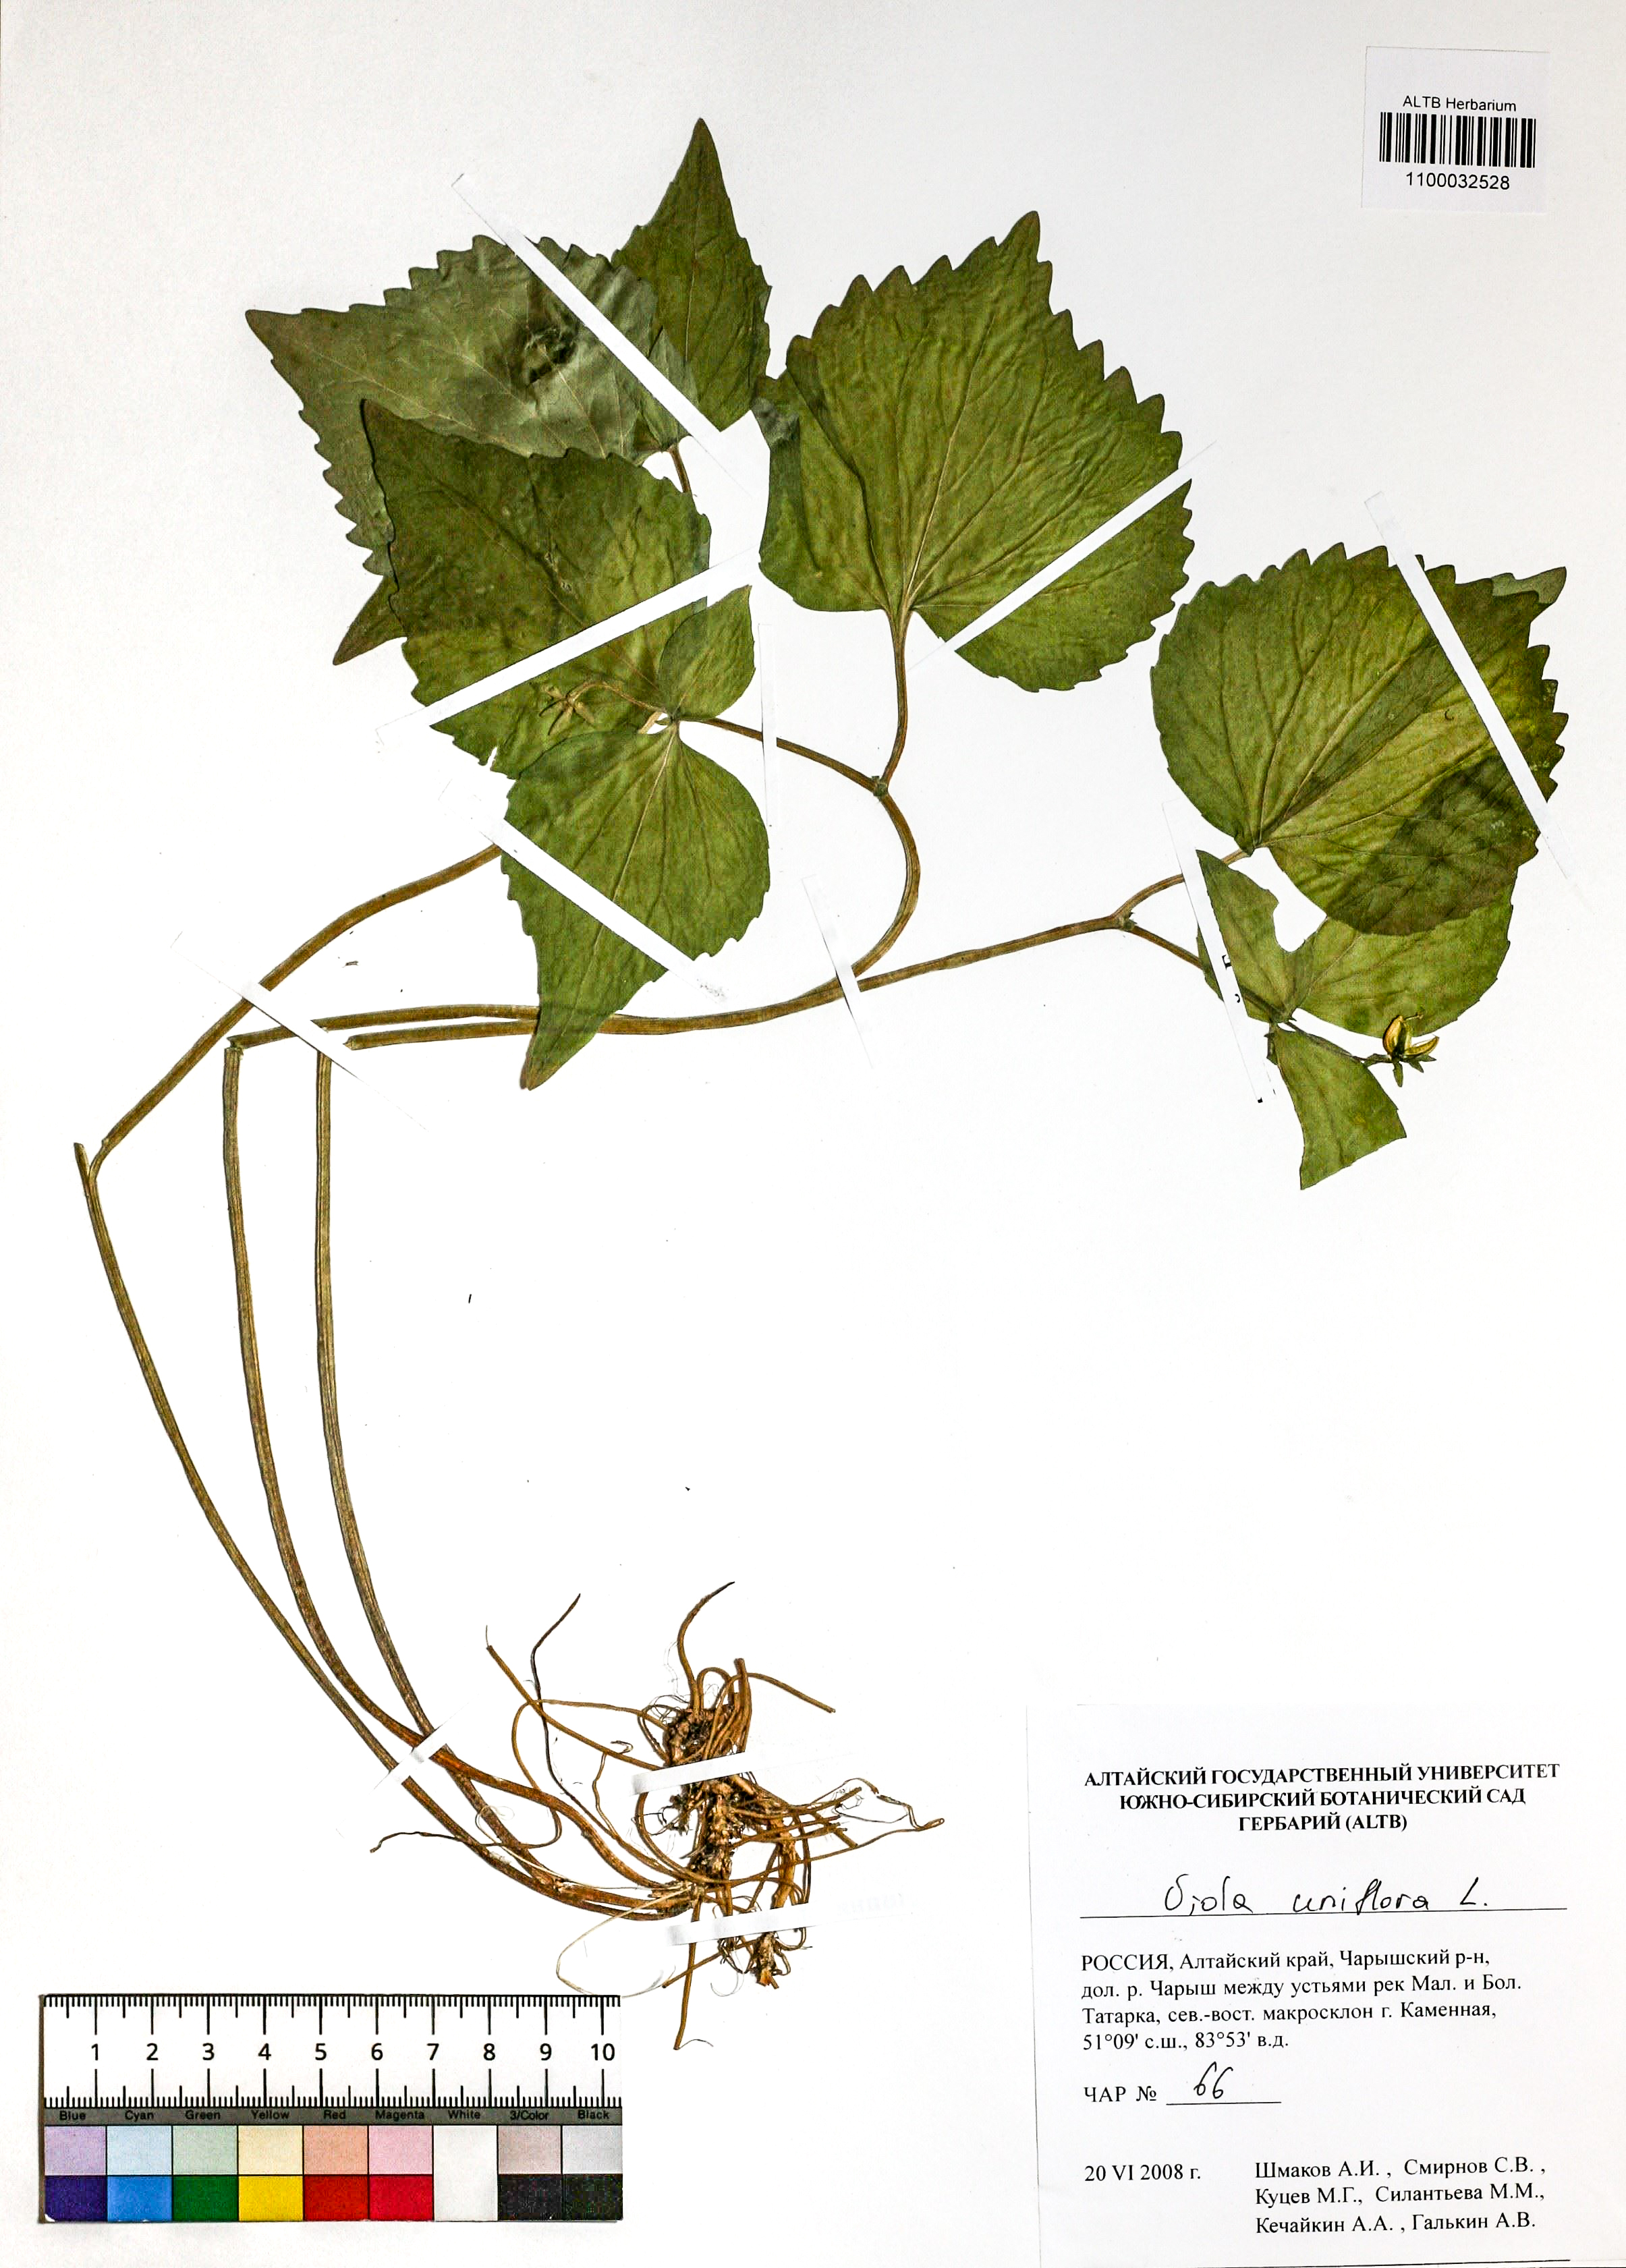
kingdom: Plantae
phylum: Tracheophyta
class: Magnoliopsida
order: Malpighiales
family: Violaceae
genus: Viola
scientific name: Viola uniflora
